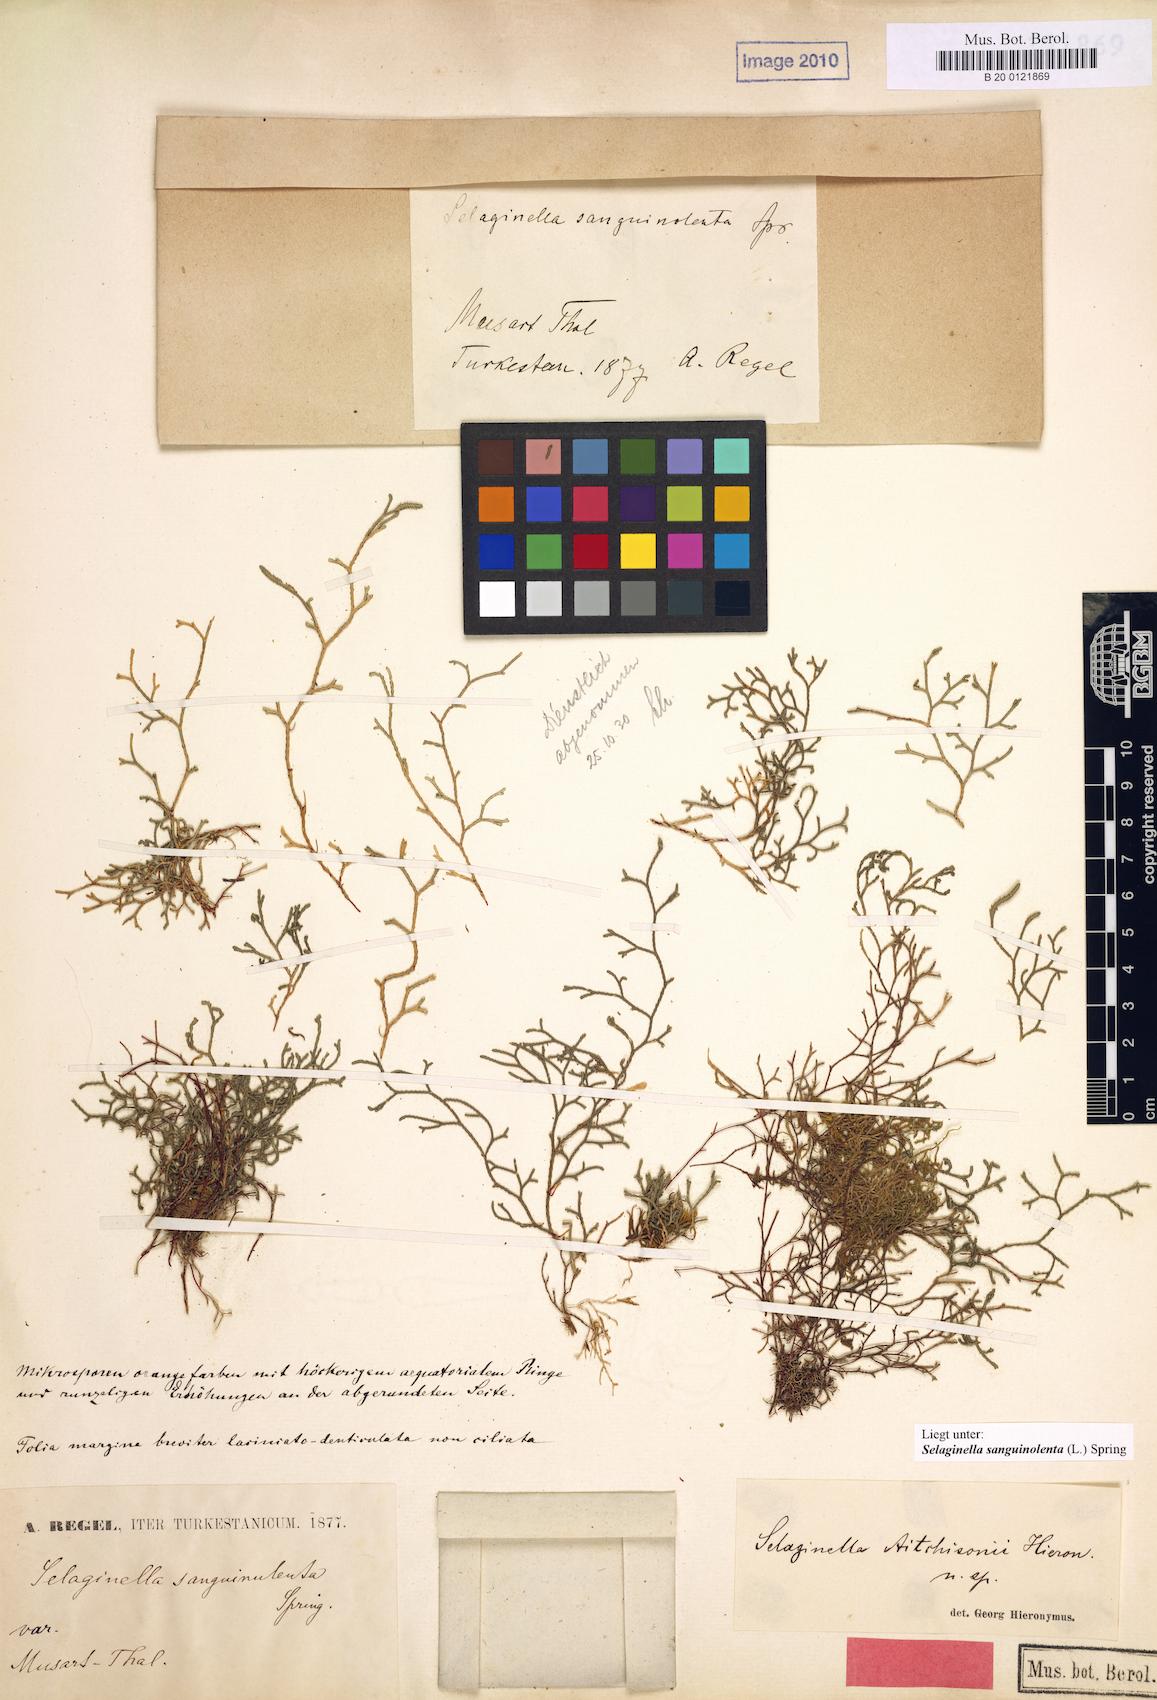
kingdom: Plantae
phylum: Tracheophyta
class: Lycopodiopsida
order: Selaginellales
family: Selaginellaceae
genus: Selaginella
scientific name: Selaginella sanguinolenta
